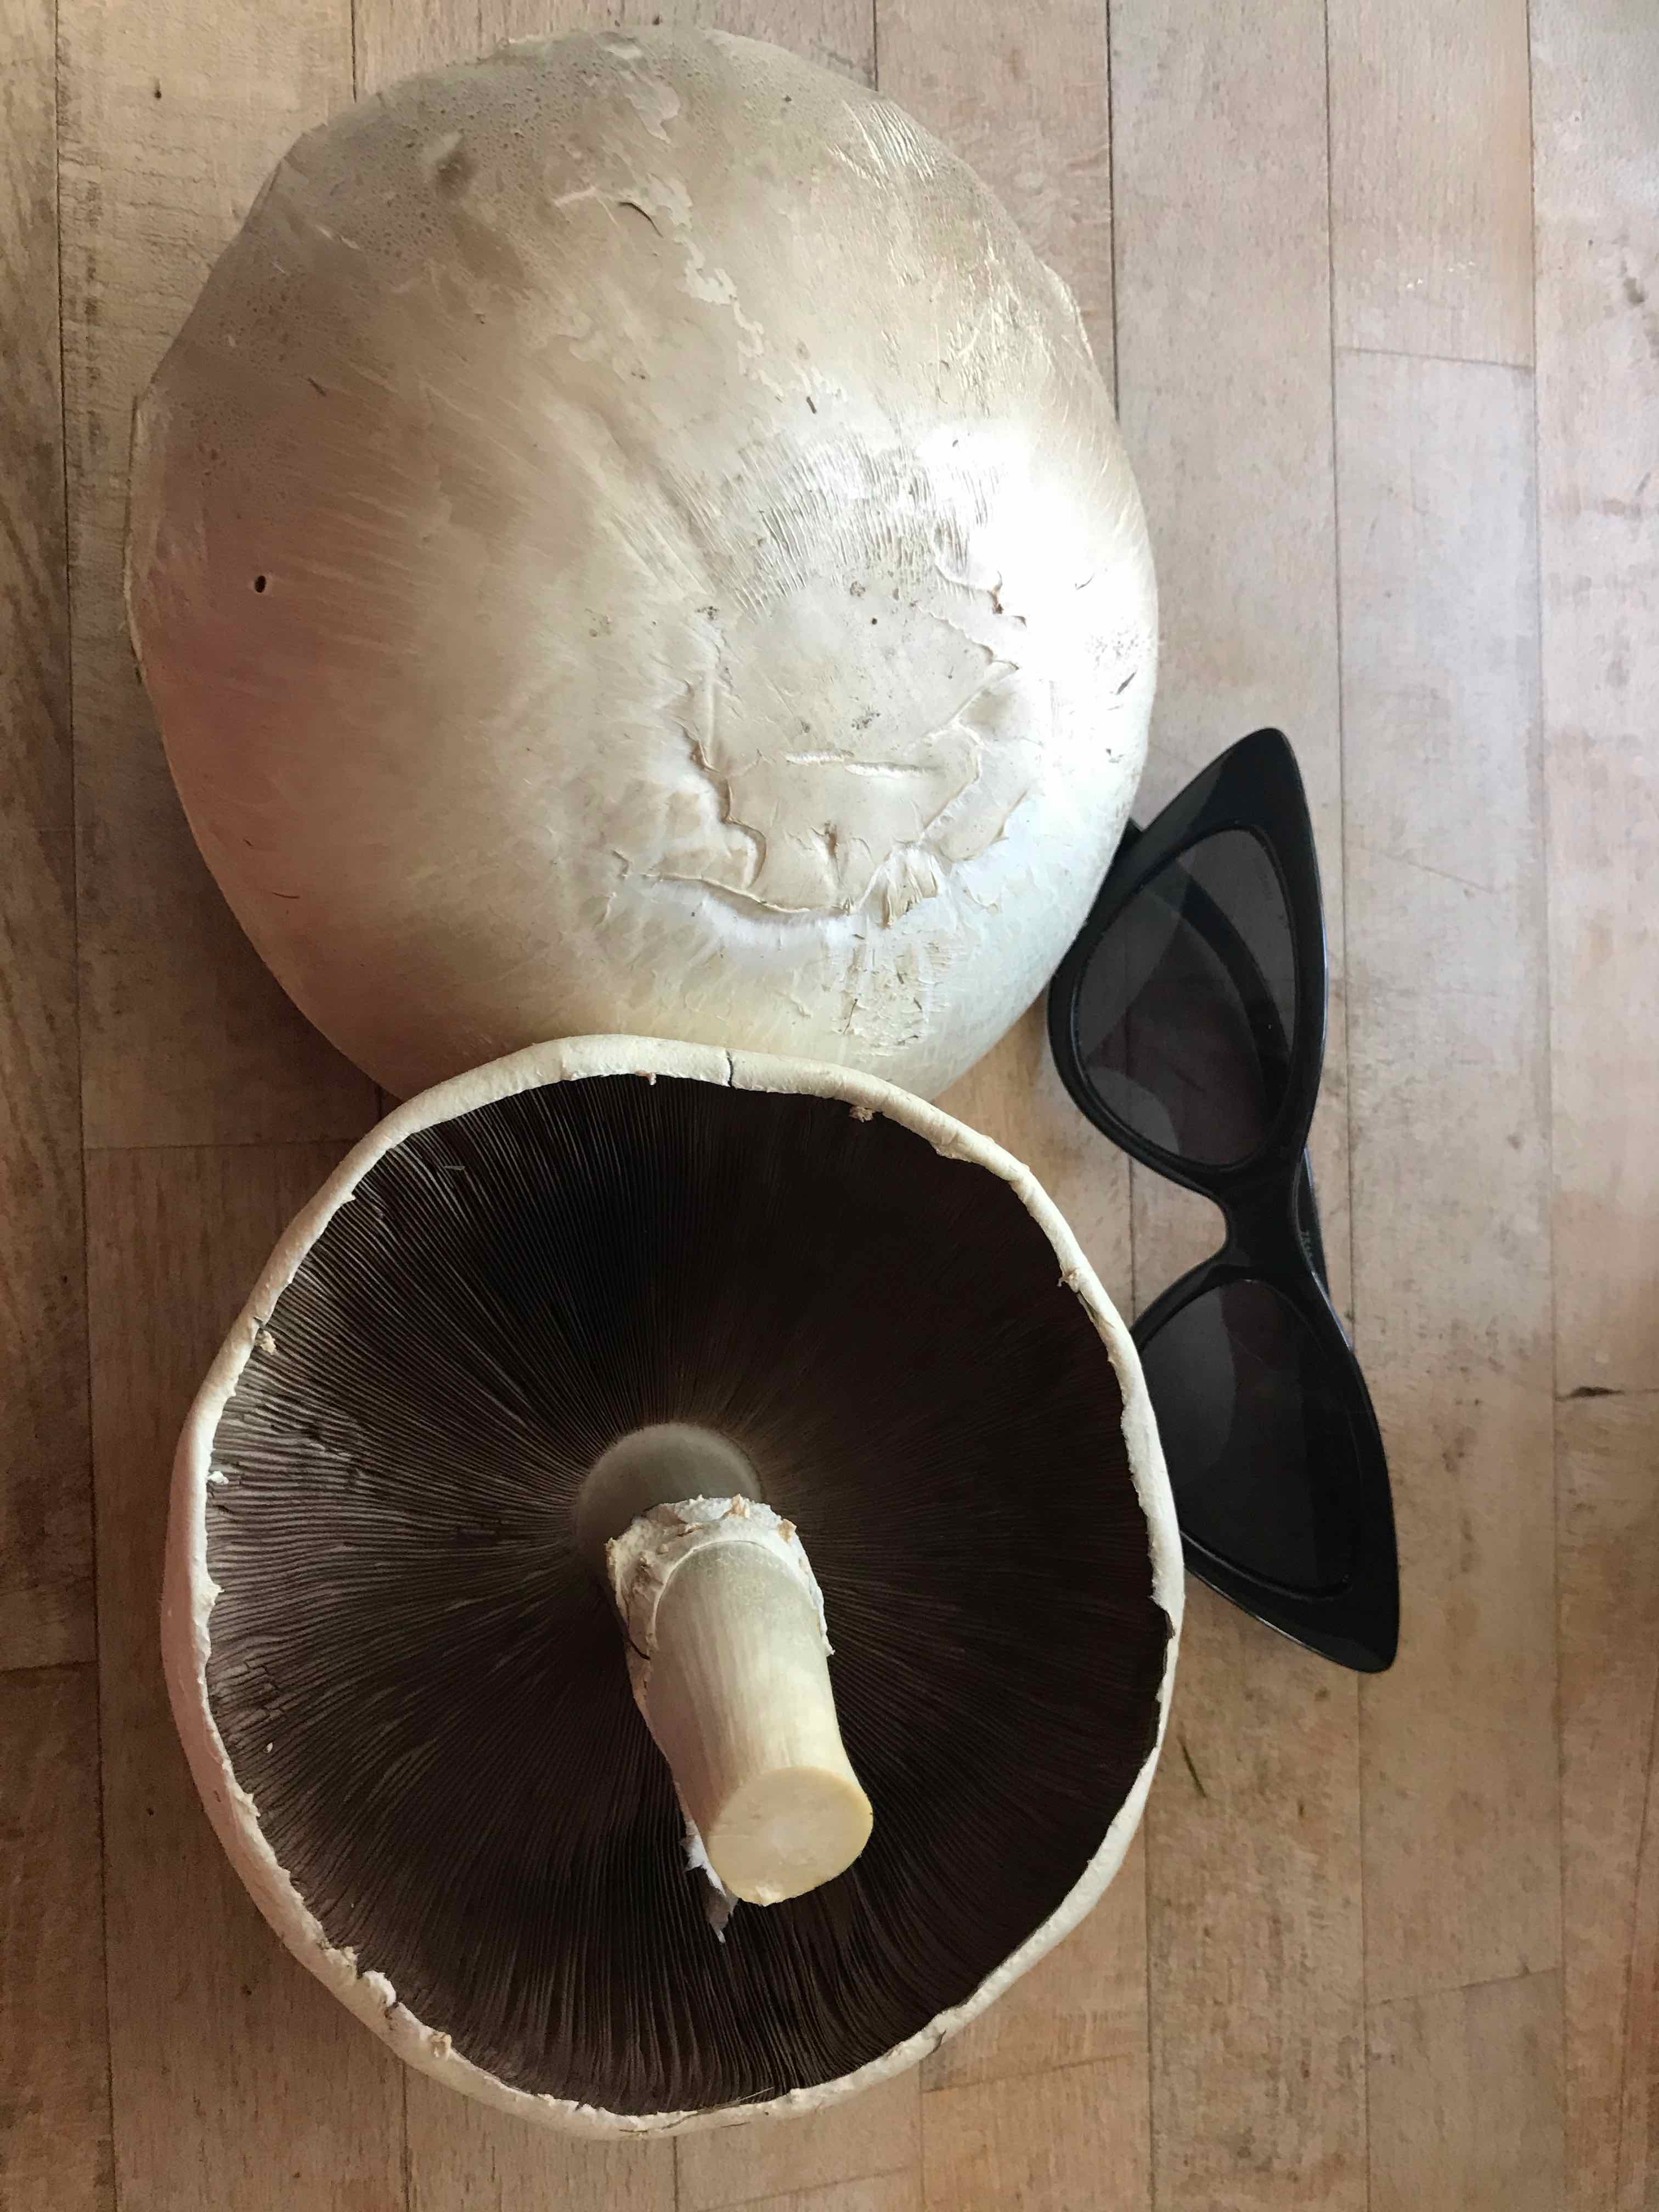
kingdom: Fungi
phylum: Basidiomycota
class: Agaricomycetes
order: Agaricales
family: Agaricaceae
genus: Agaricus
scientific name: Agaricus
